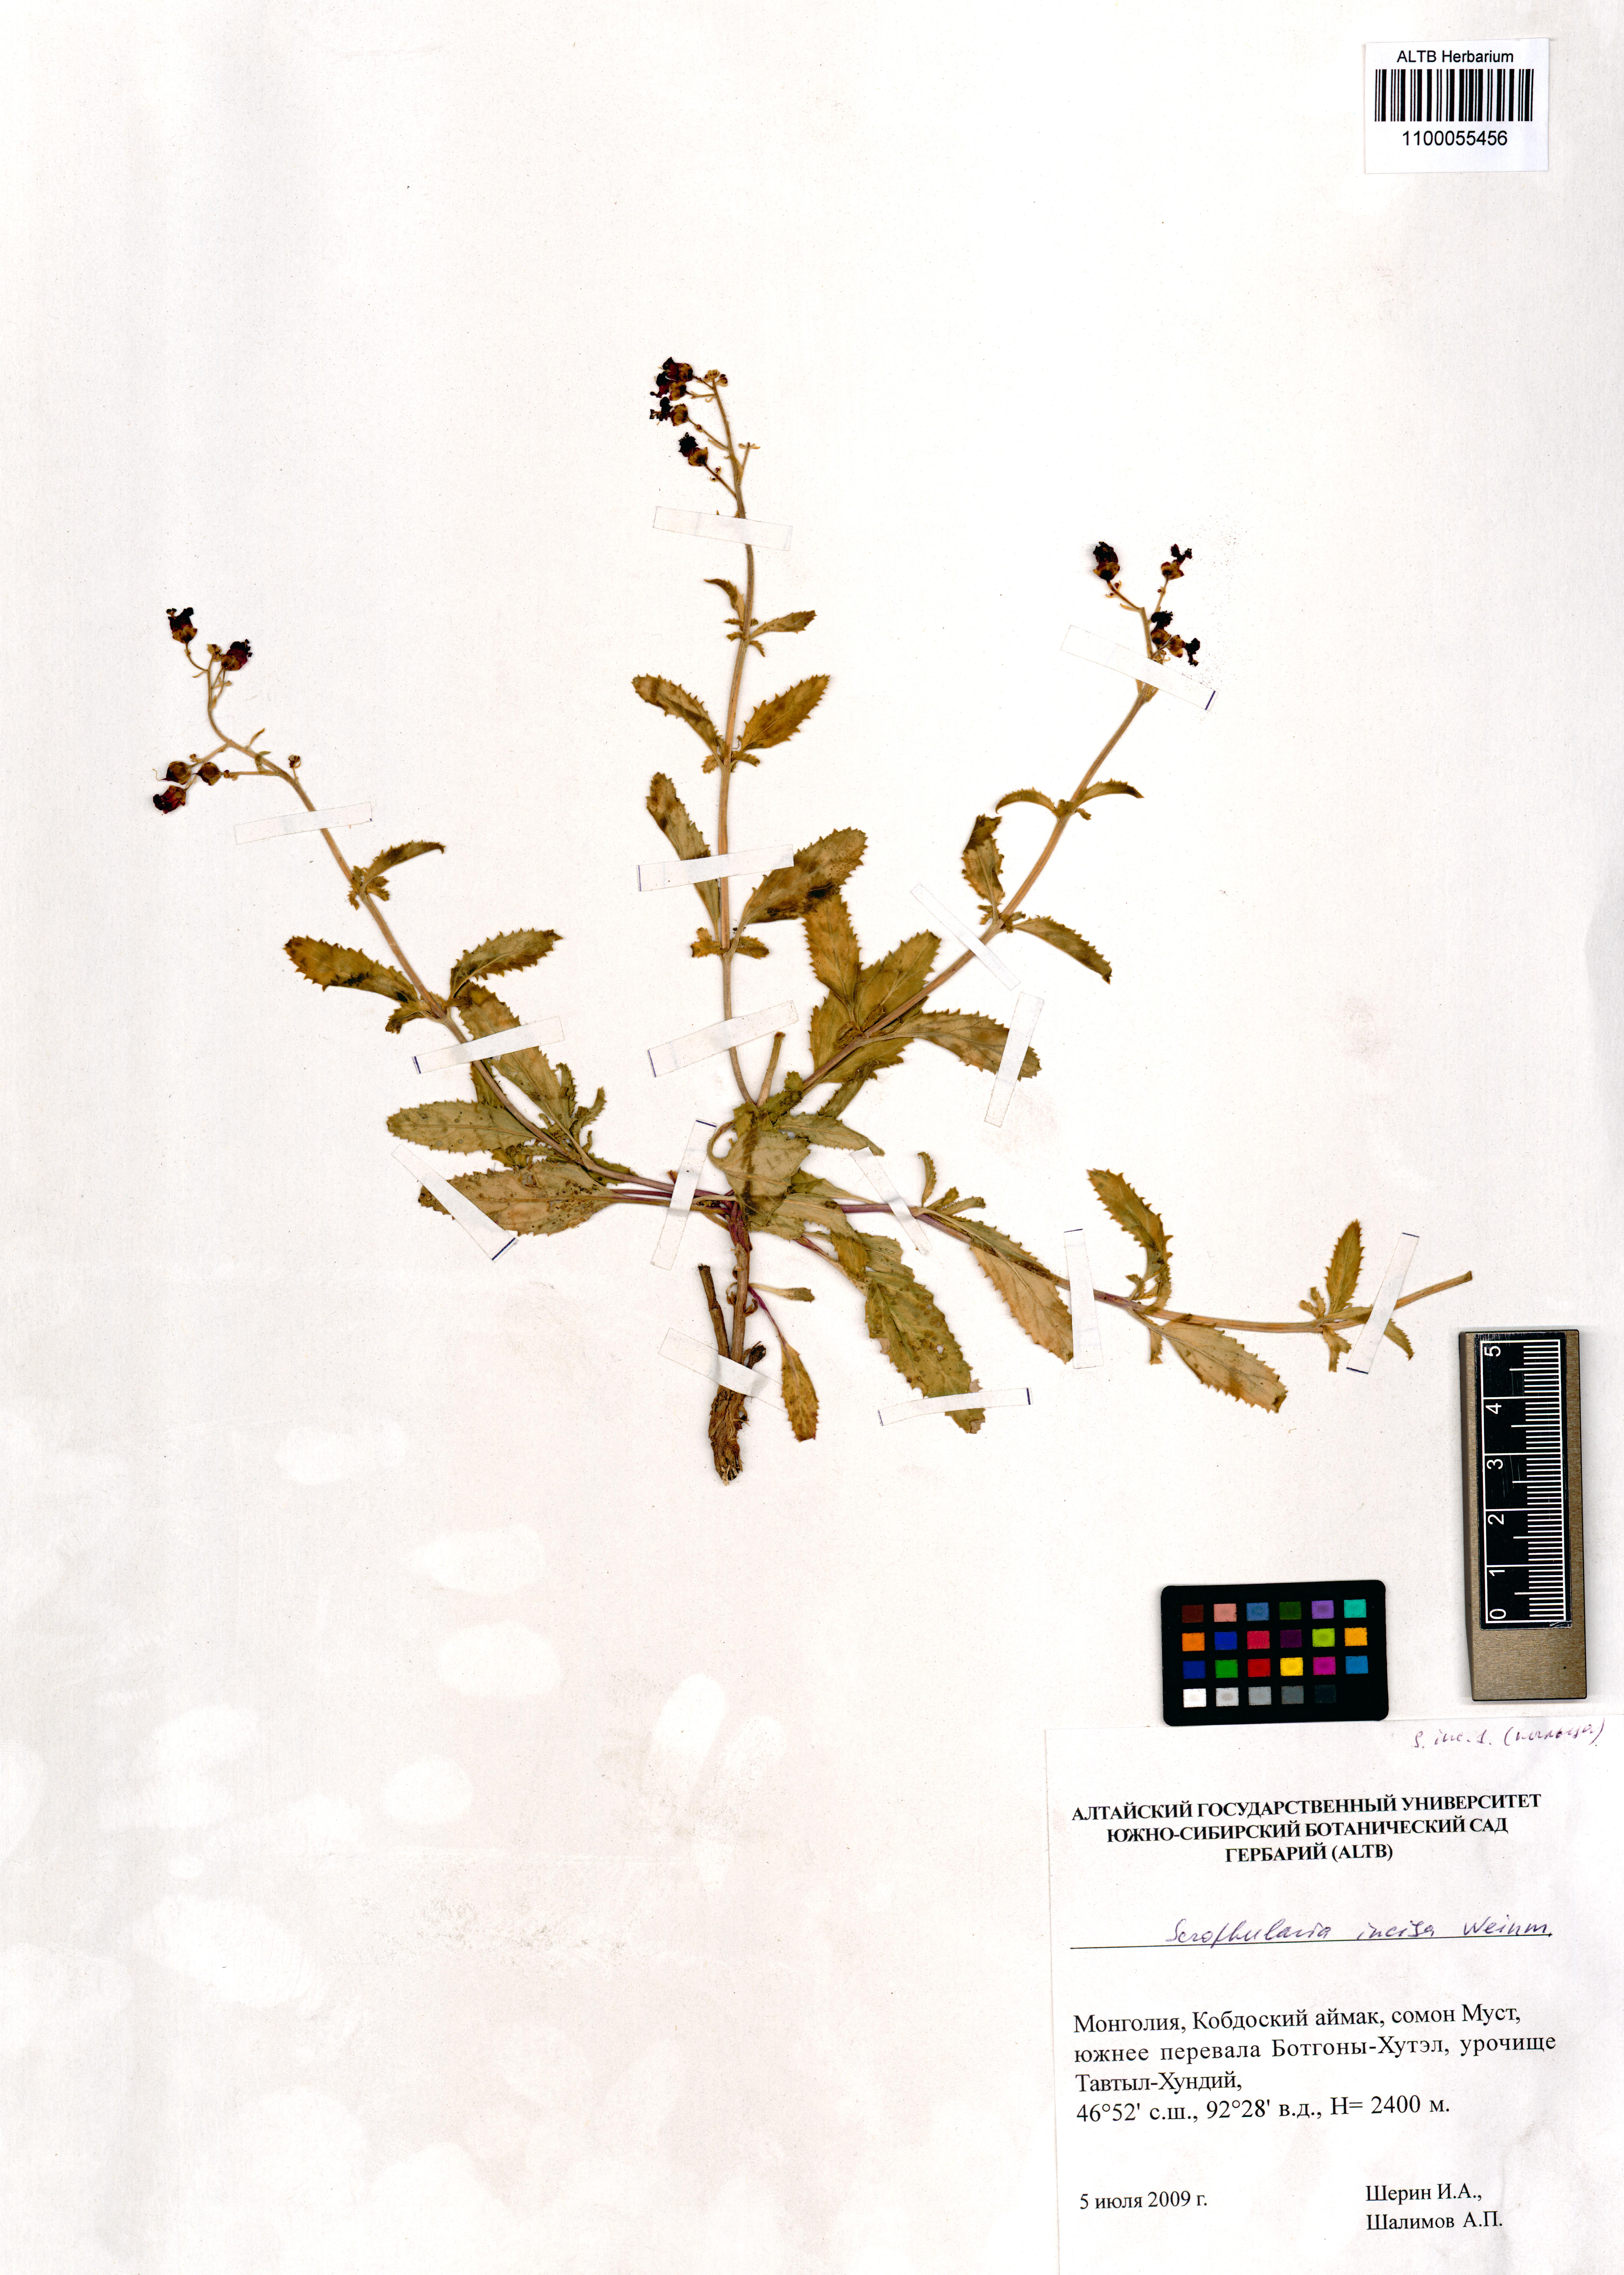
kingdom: Plantae
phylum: Tracheophyta
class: Magnoliopsida
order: Lamiales
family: Scrophulariaceae
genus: Scrophularia
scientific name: Scrophularia incisa
